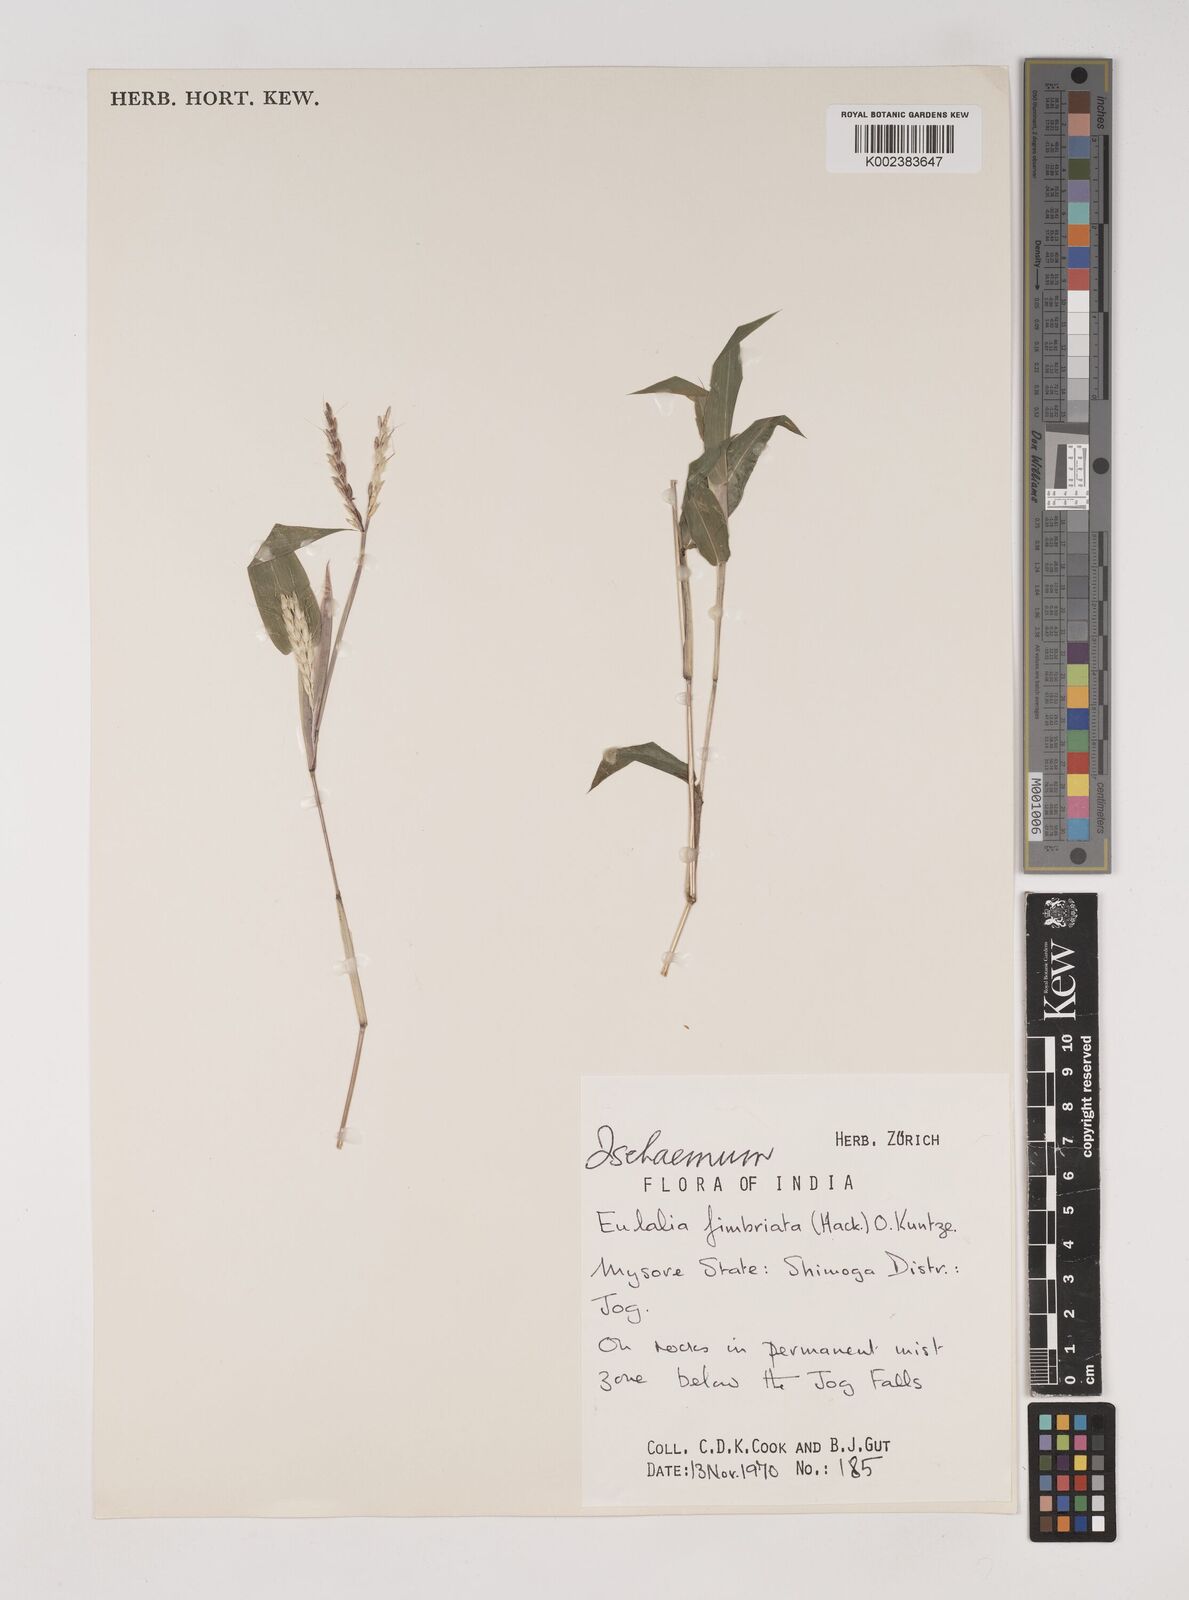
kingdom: Plantae
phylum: Tracheophyta
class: Liliopsida
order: Poales
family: Poaceae
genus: Ischaemum
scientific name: Ischaemum
